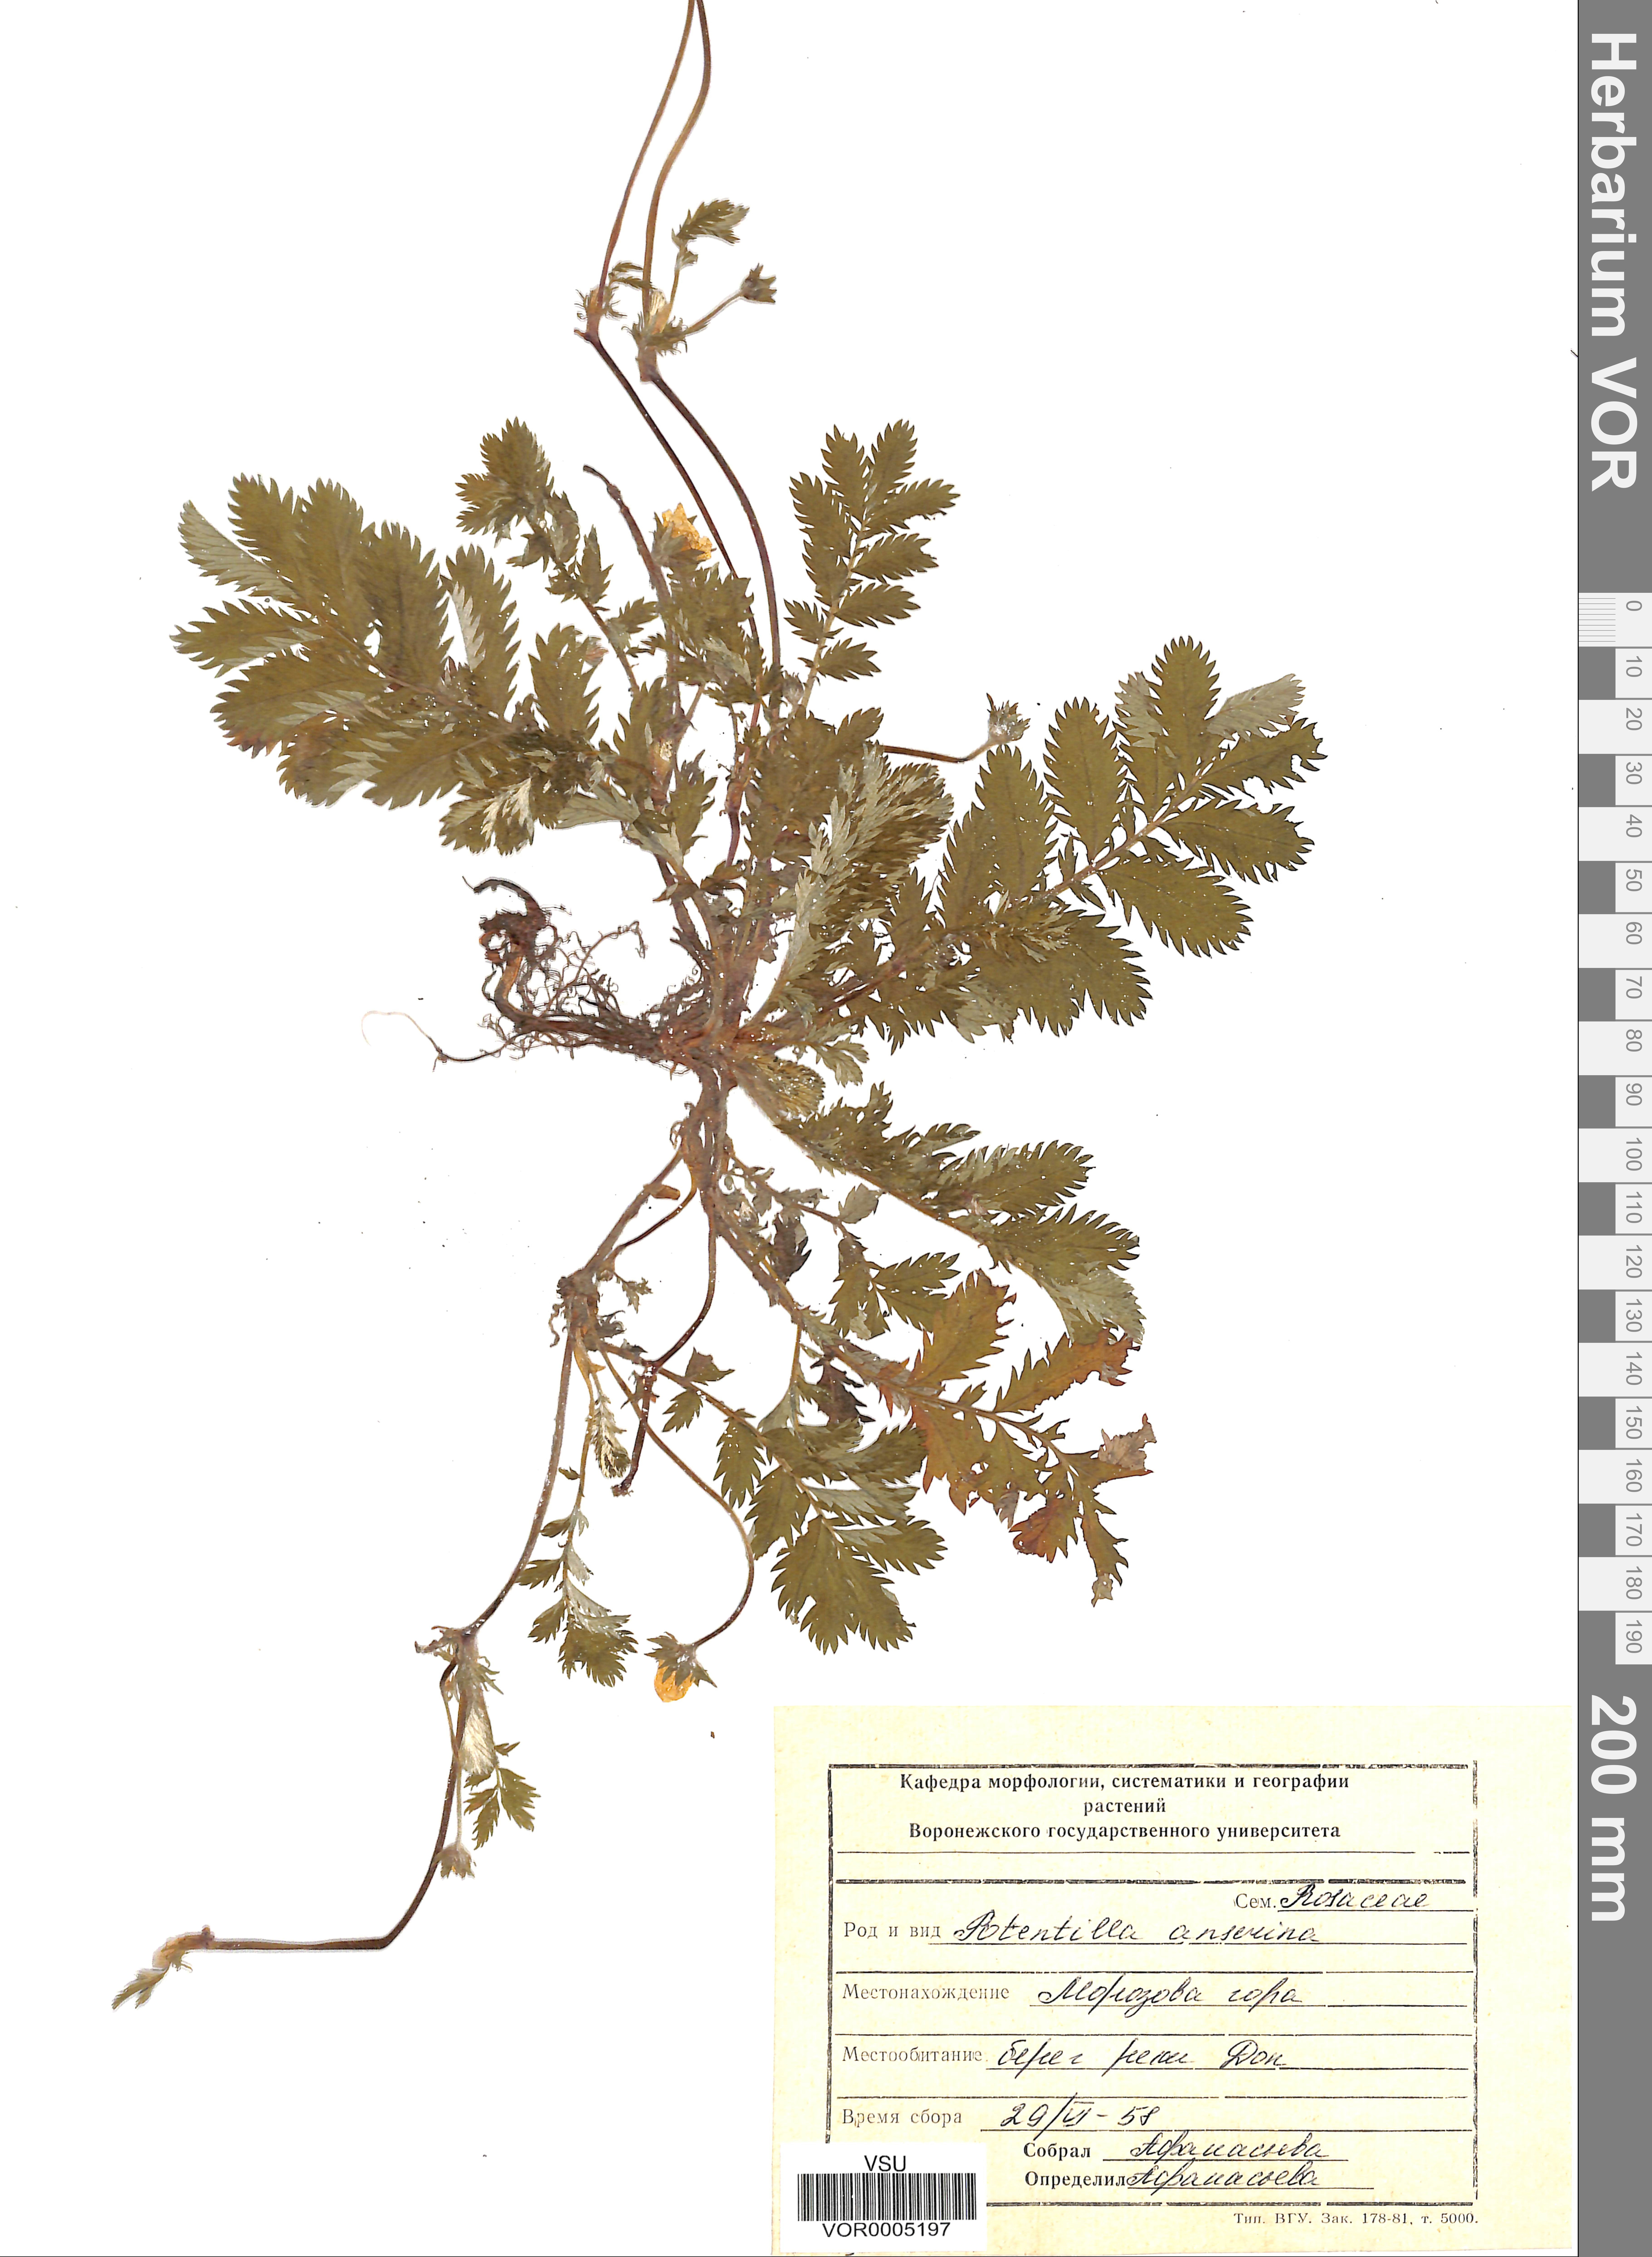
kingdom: Plantae
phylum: Tracheophyta
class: Magnoliopsida
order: Rosales
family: Rosaceae
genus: Argentina
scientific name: Argentina anserina
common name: Common silverweed
